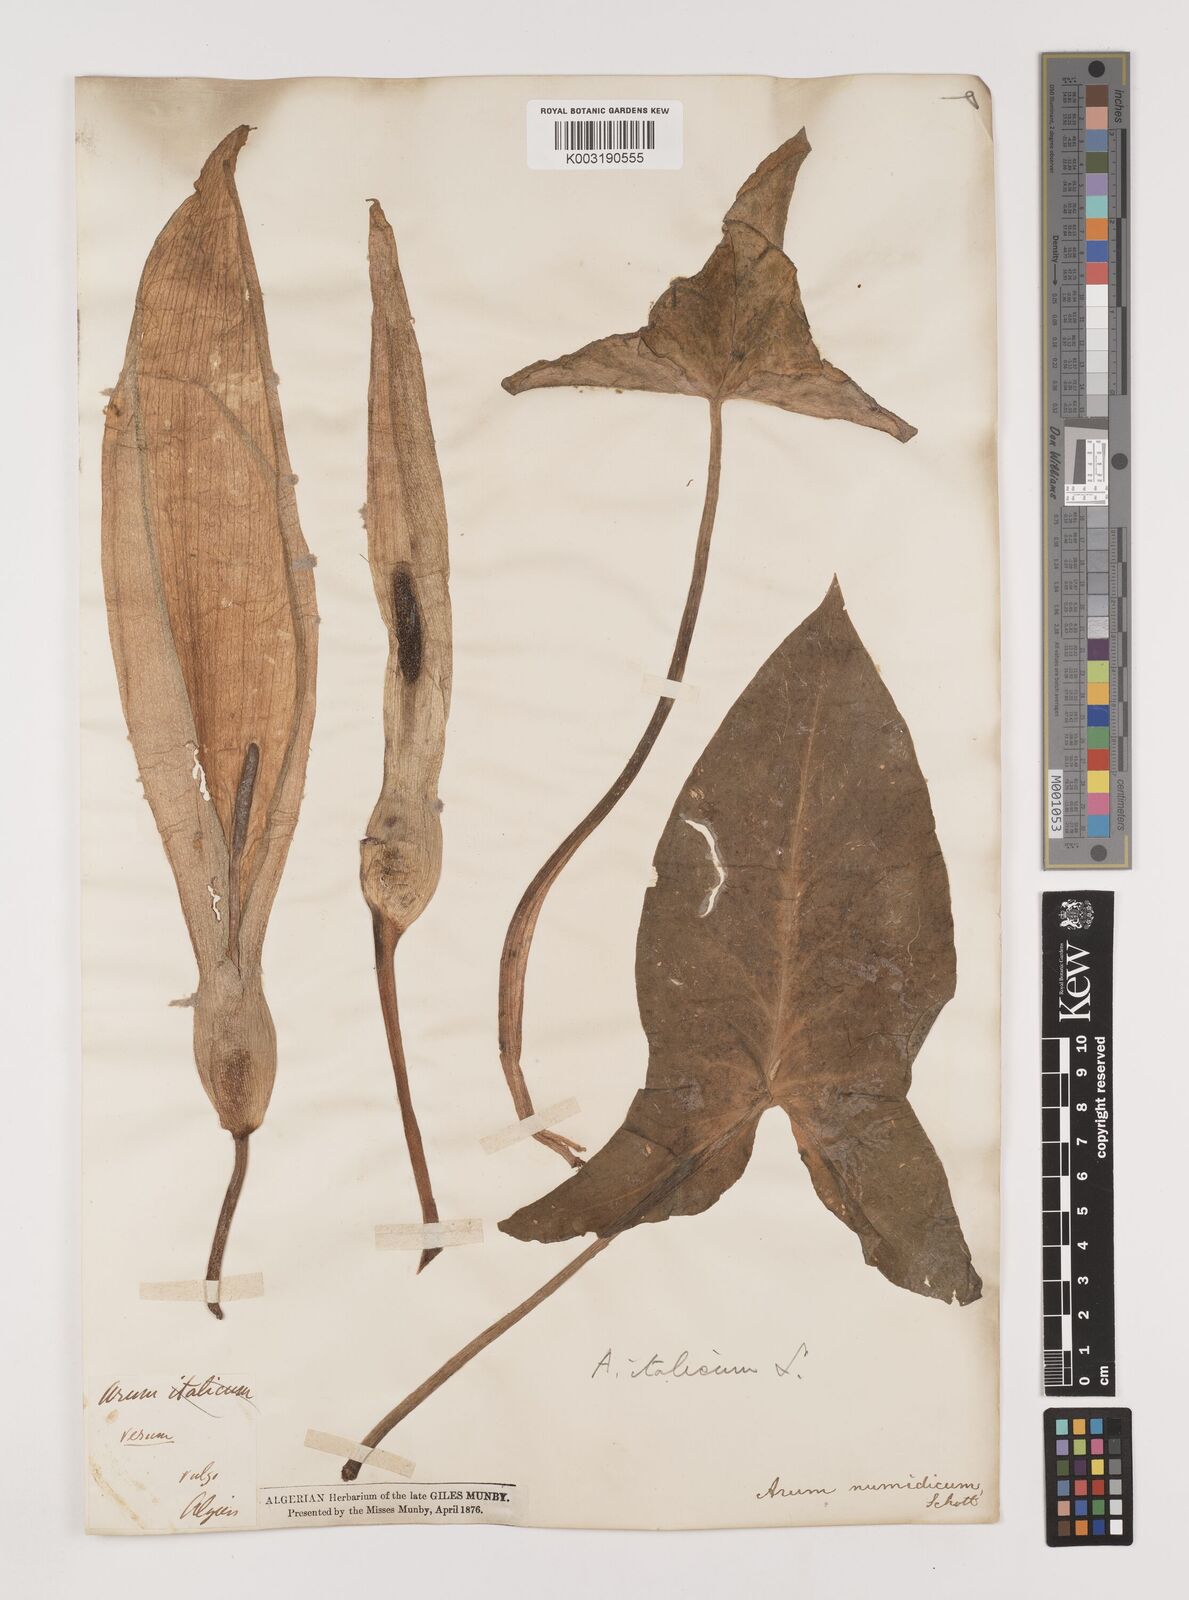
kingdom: Plantae
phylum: Tracheophyta
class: Liliopsida
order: Alismatales
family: Araceae
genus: Arum
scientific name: Arum italicum
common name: Italian lords-and-ladies
